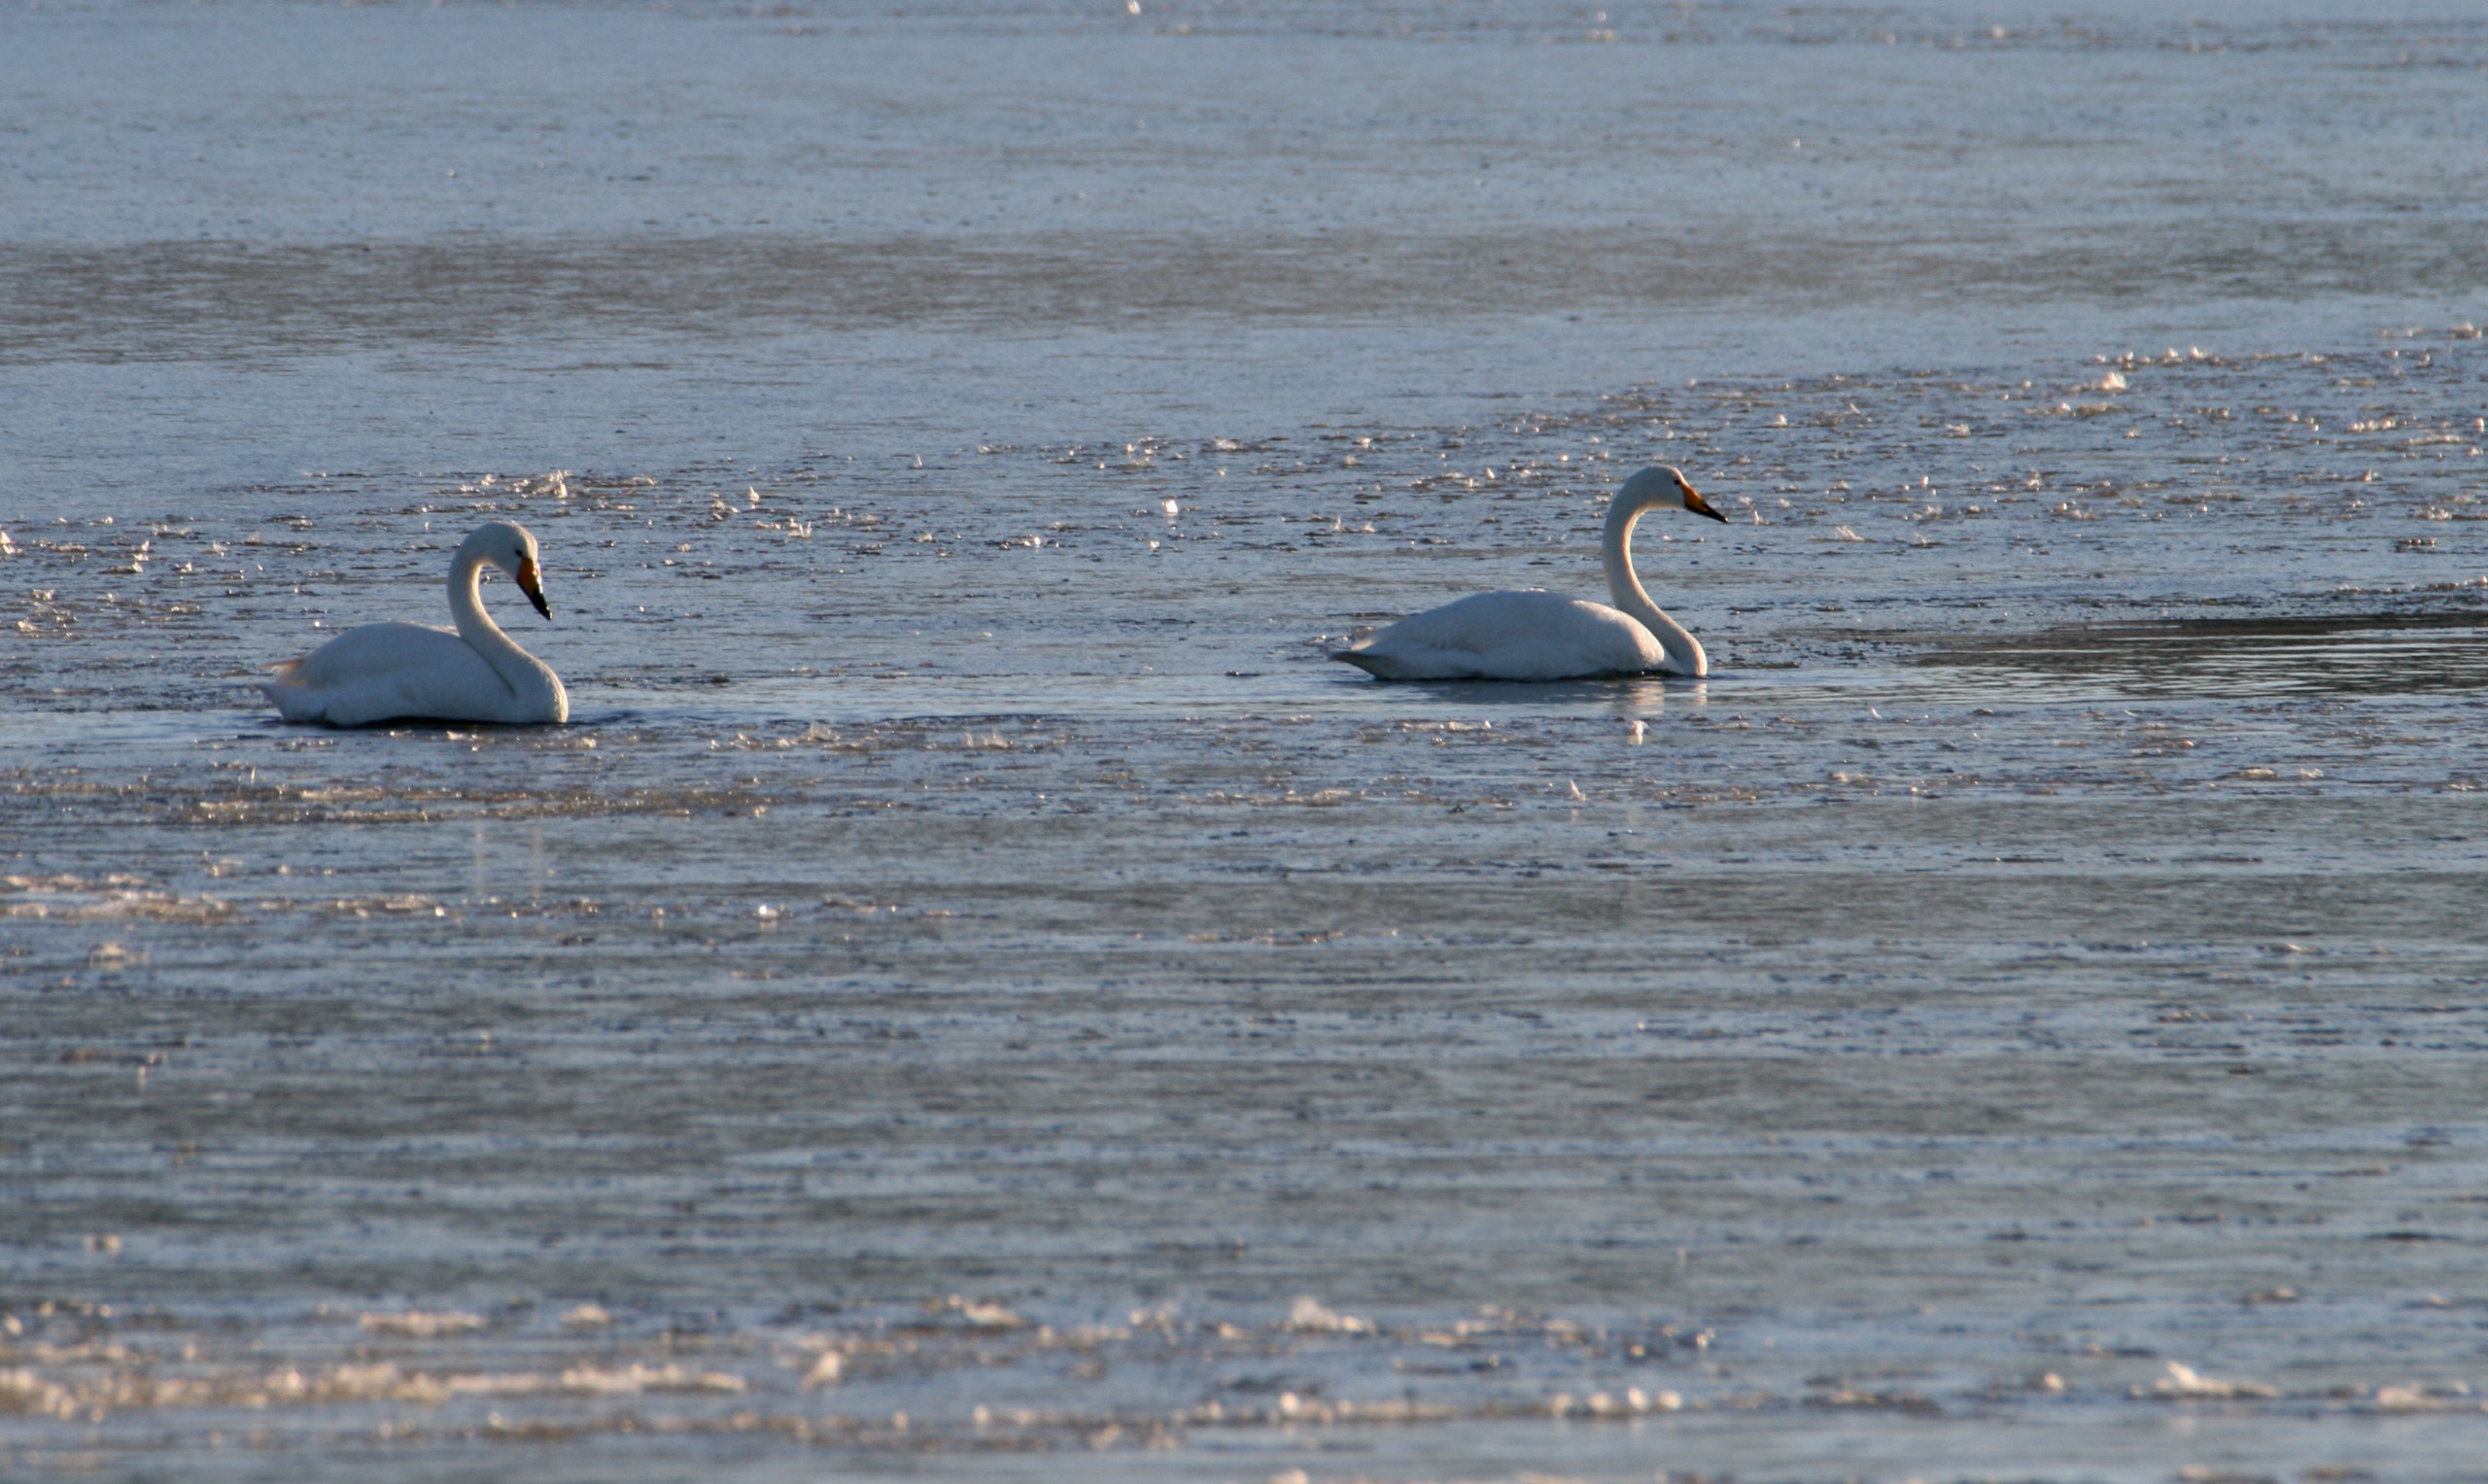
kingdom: Animalia
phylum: Chordata
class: Aves
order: Anseriformes
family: Anatidae
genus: Cygnus
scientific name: Cygnus cygnus
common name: Sangsvane
